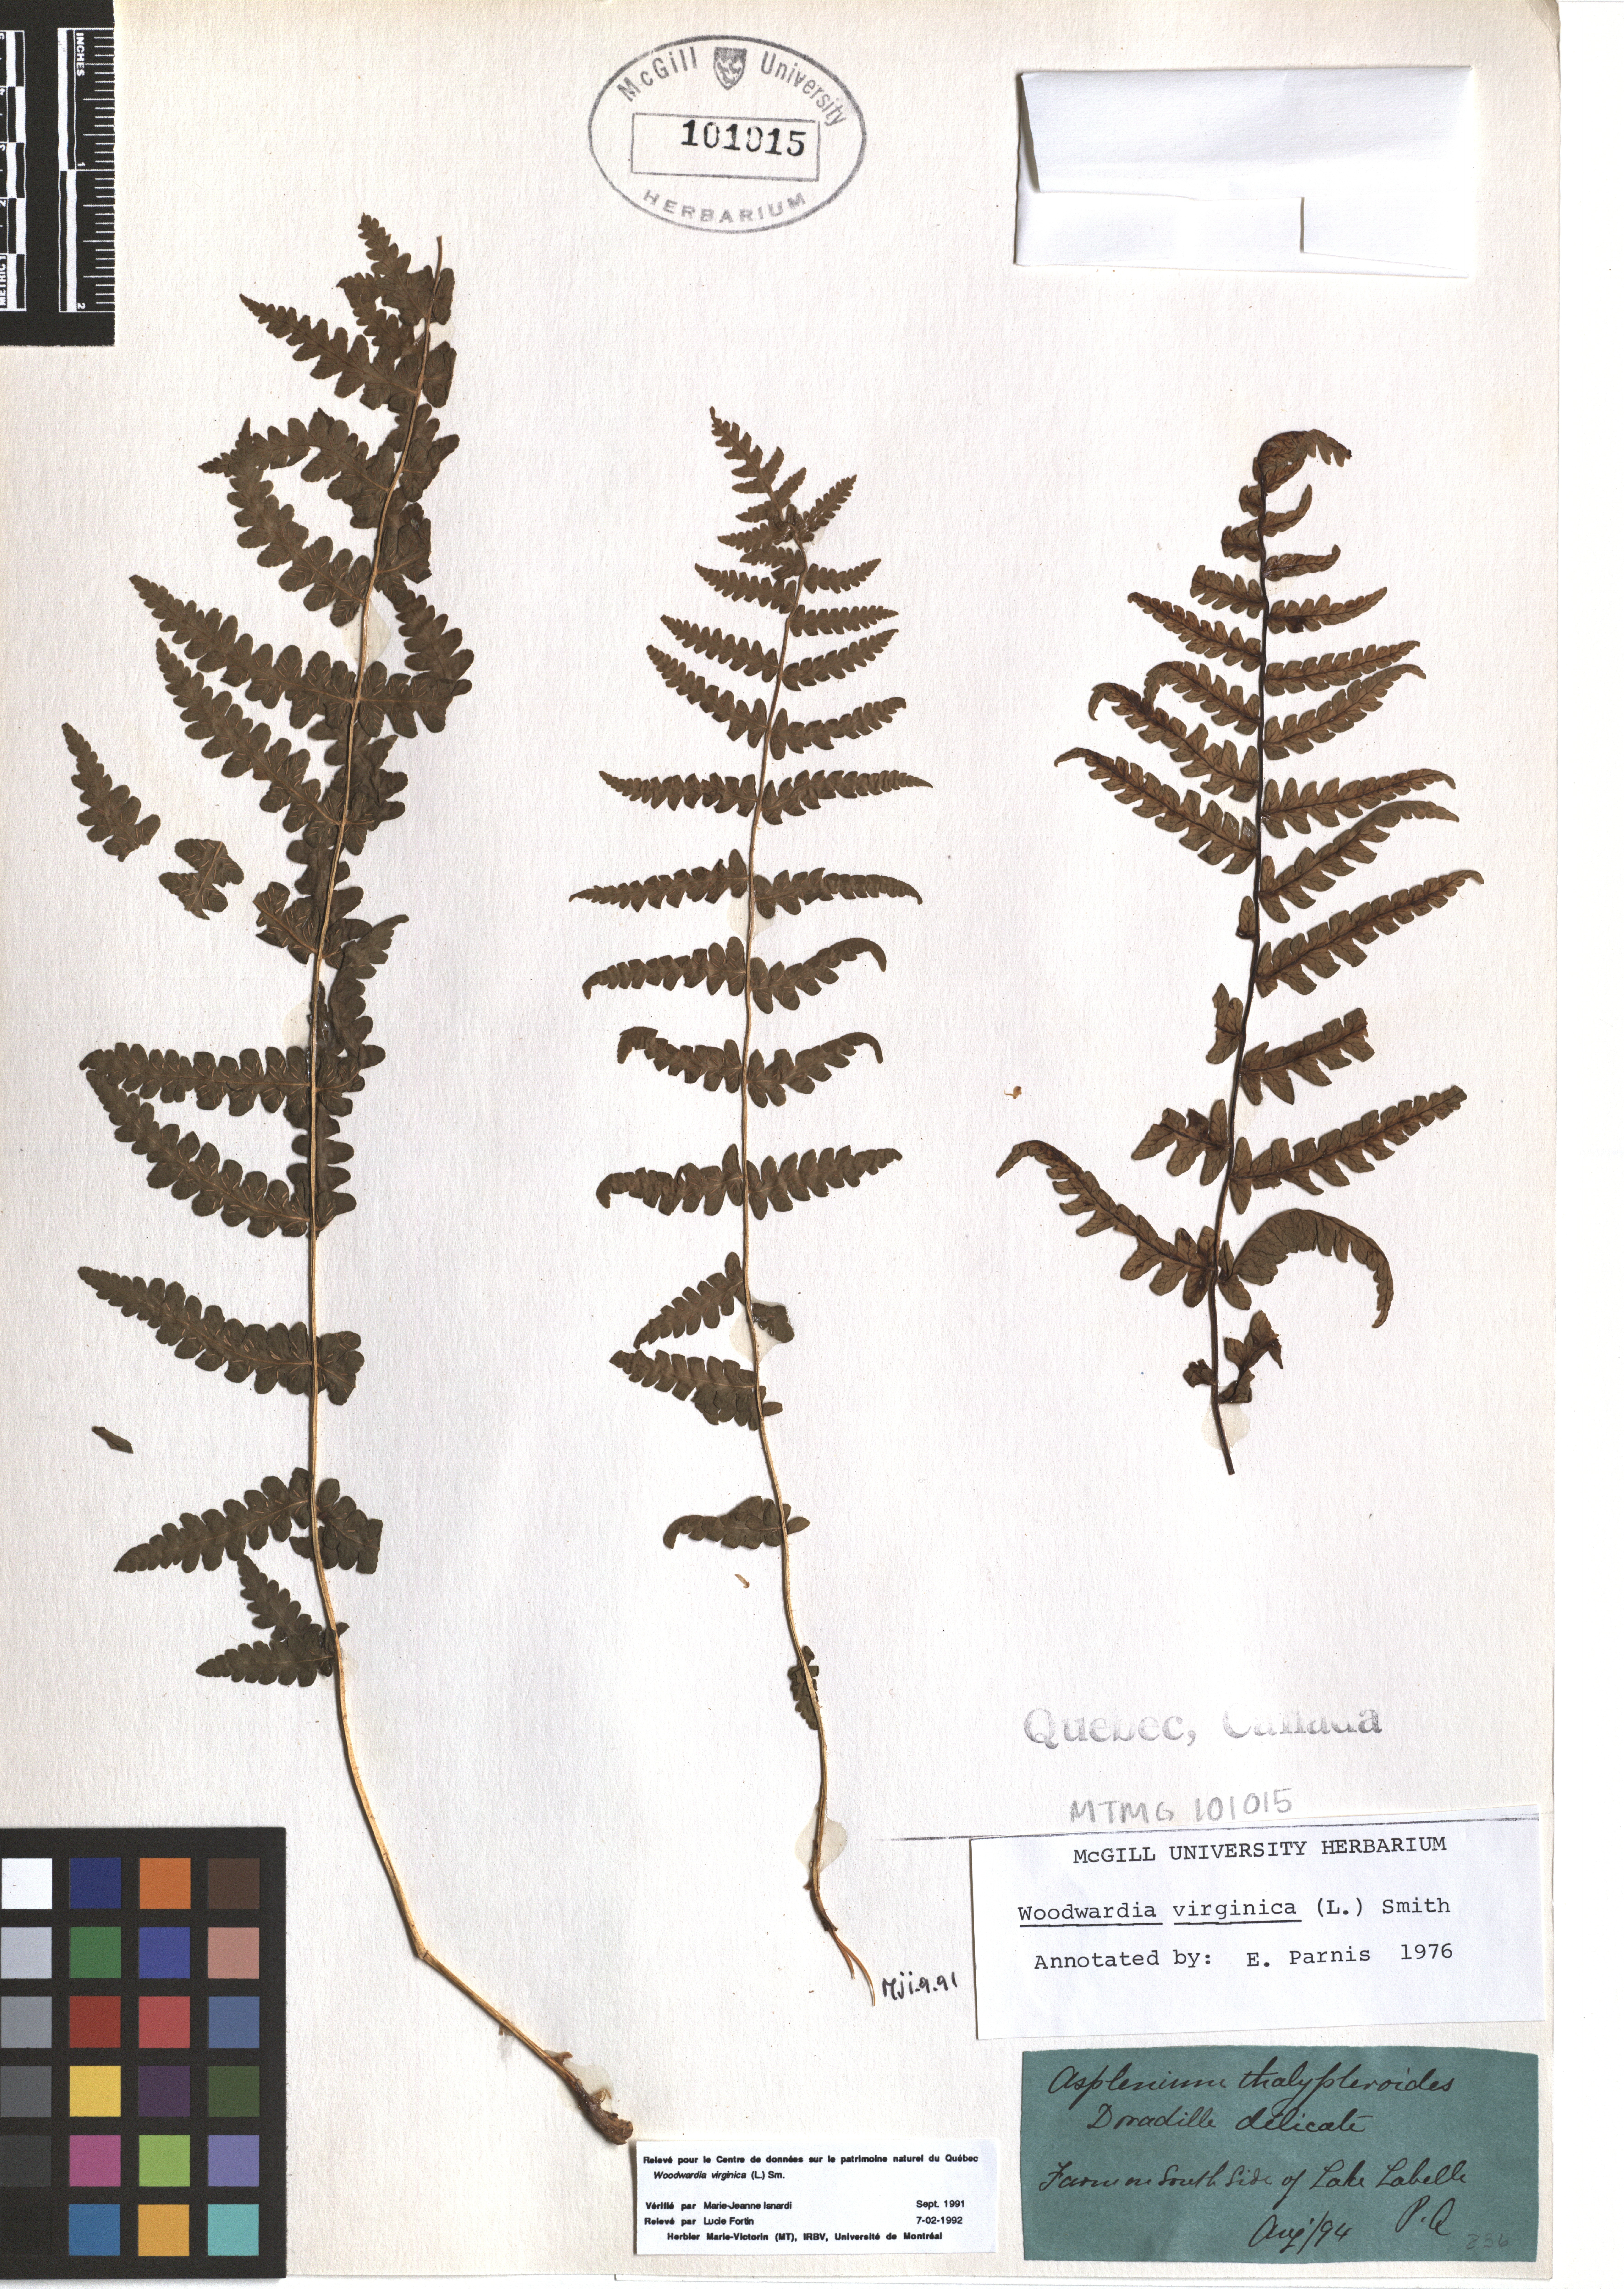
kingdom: Plantae
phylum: Tracheophyta
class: Polypodiopsida
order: Polypodiales
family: Blechnaceae
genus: Anchistea
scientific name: Anchistea virginica
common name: Virginia chain fern
